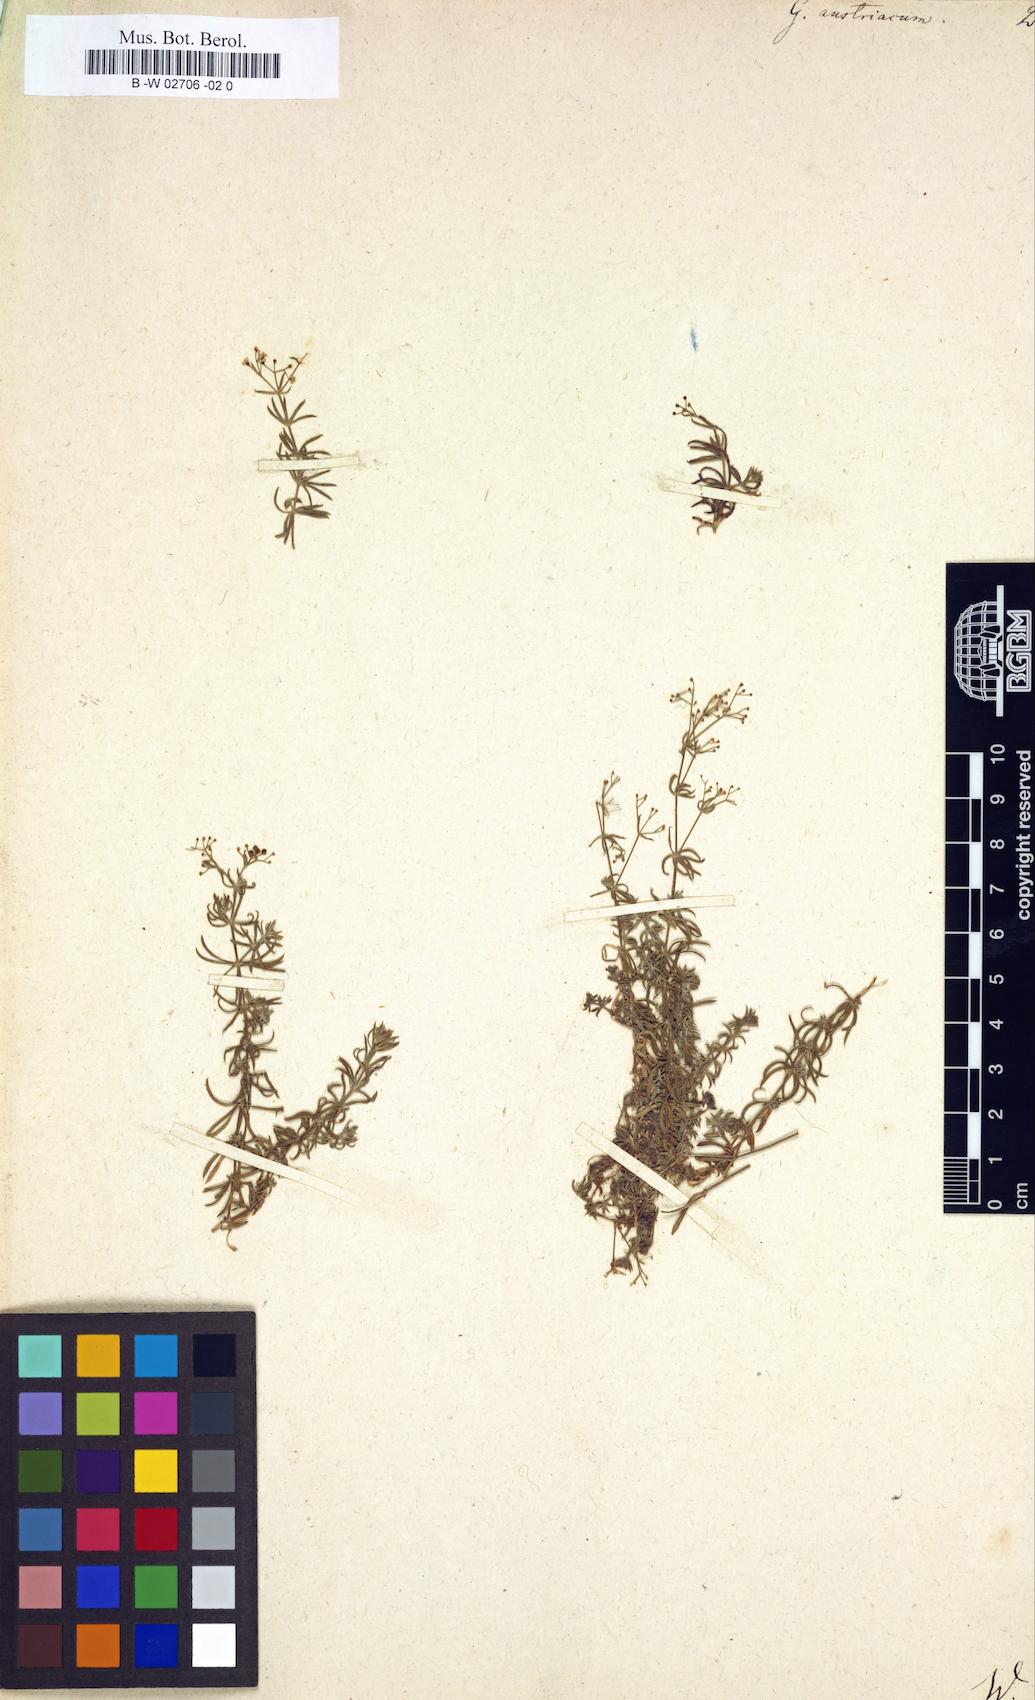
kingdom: Plantae
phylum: Tracheophyta
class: Magnoliopsida
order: Gentianales
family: Rubiaceae
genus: Galium
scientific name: Galium austriacum
